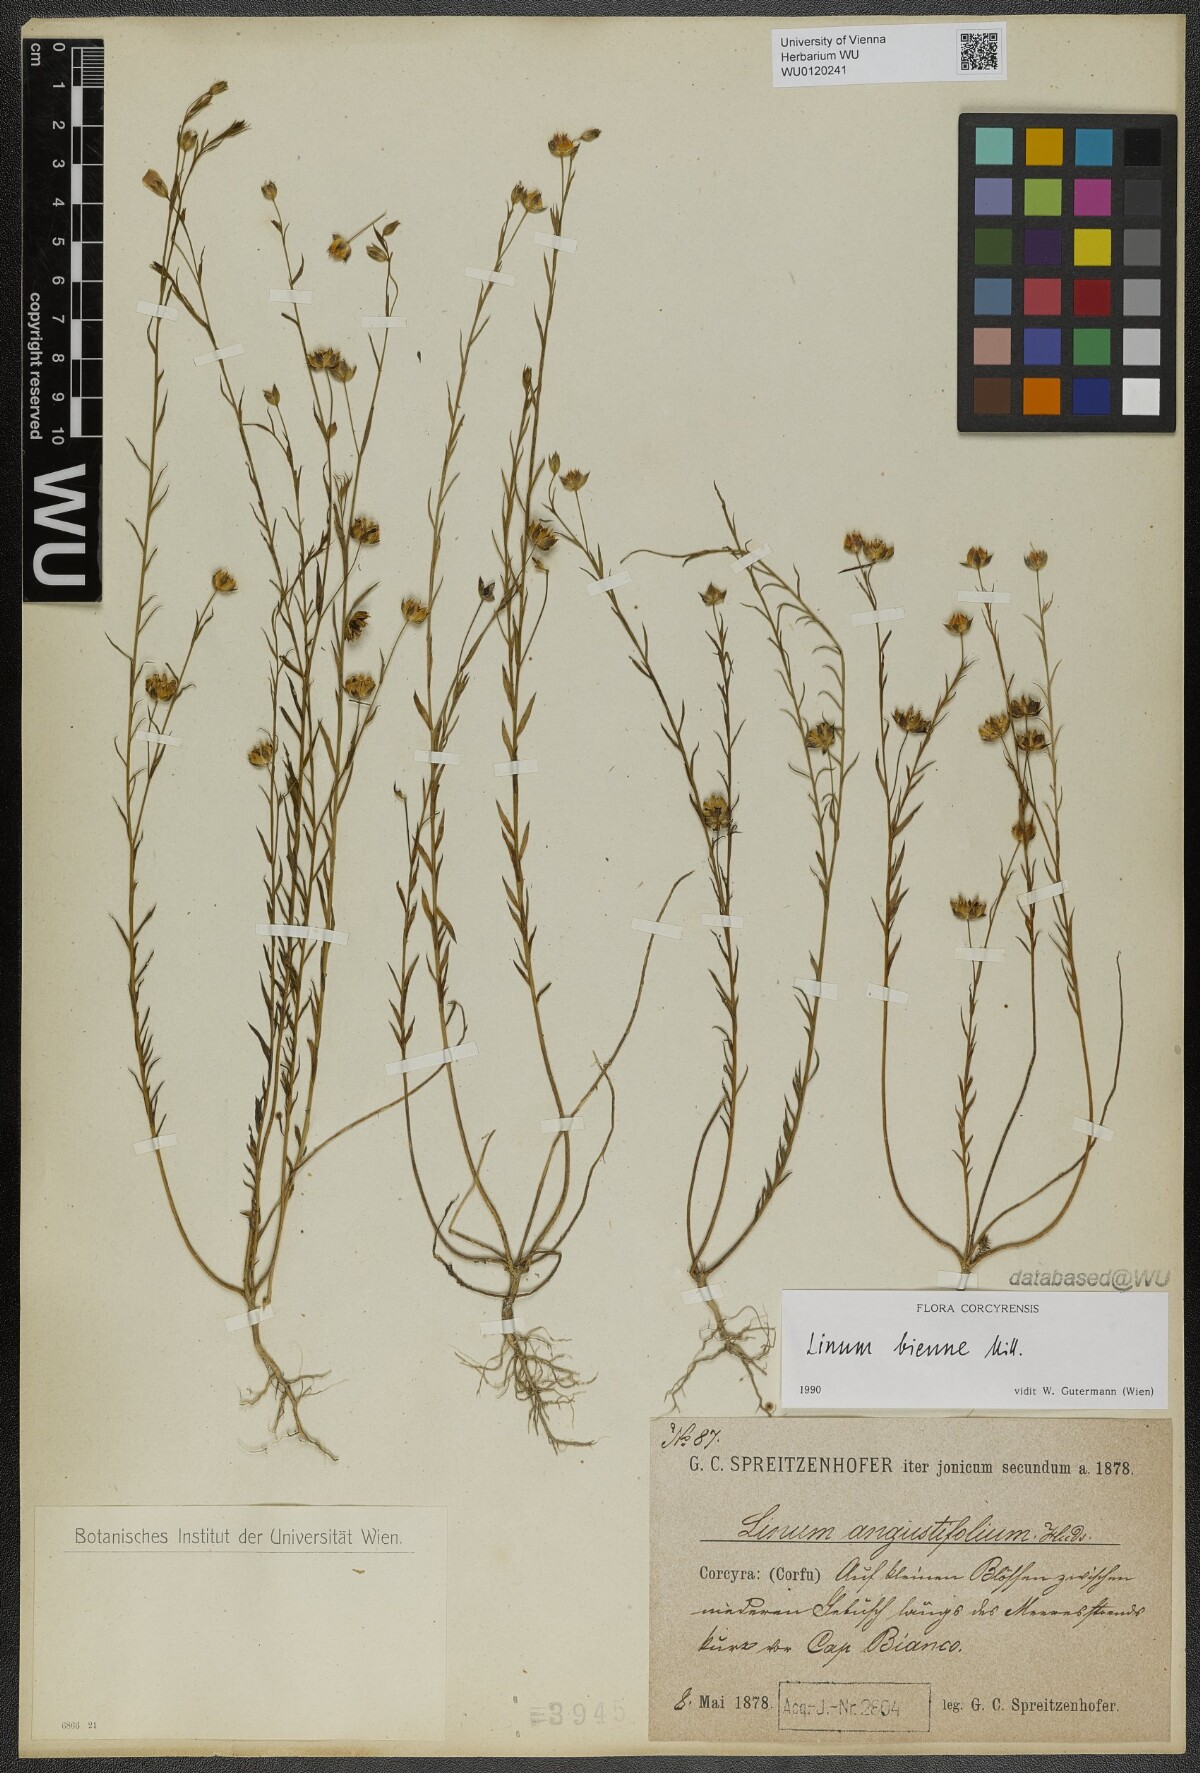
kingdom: Plantae
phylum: Tracheophyta
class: Magnoliopsida
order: Malpighiales
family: Linaceae
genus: Linum
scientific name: Linum bienne
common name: Pale flax
